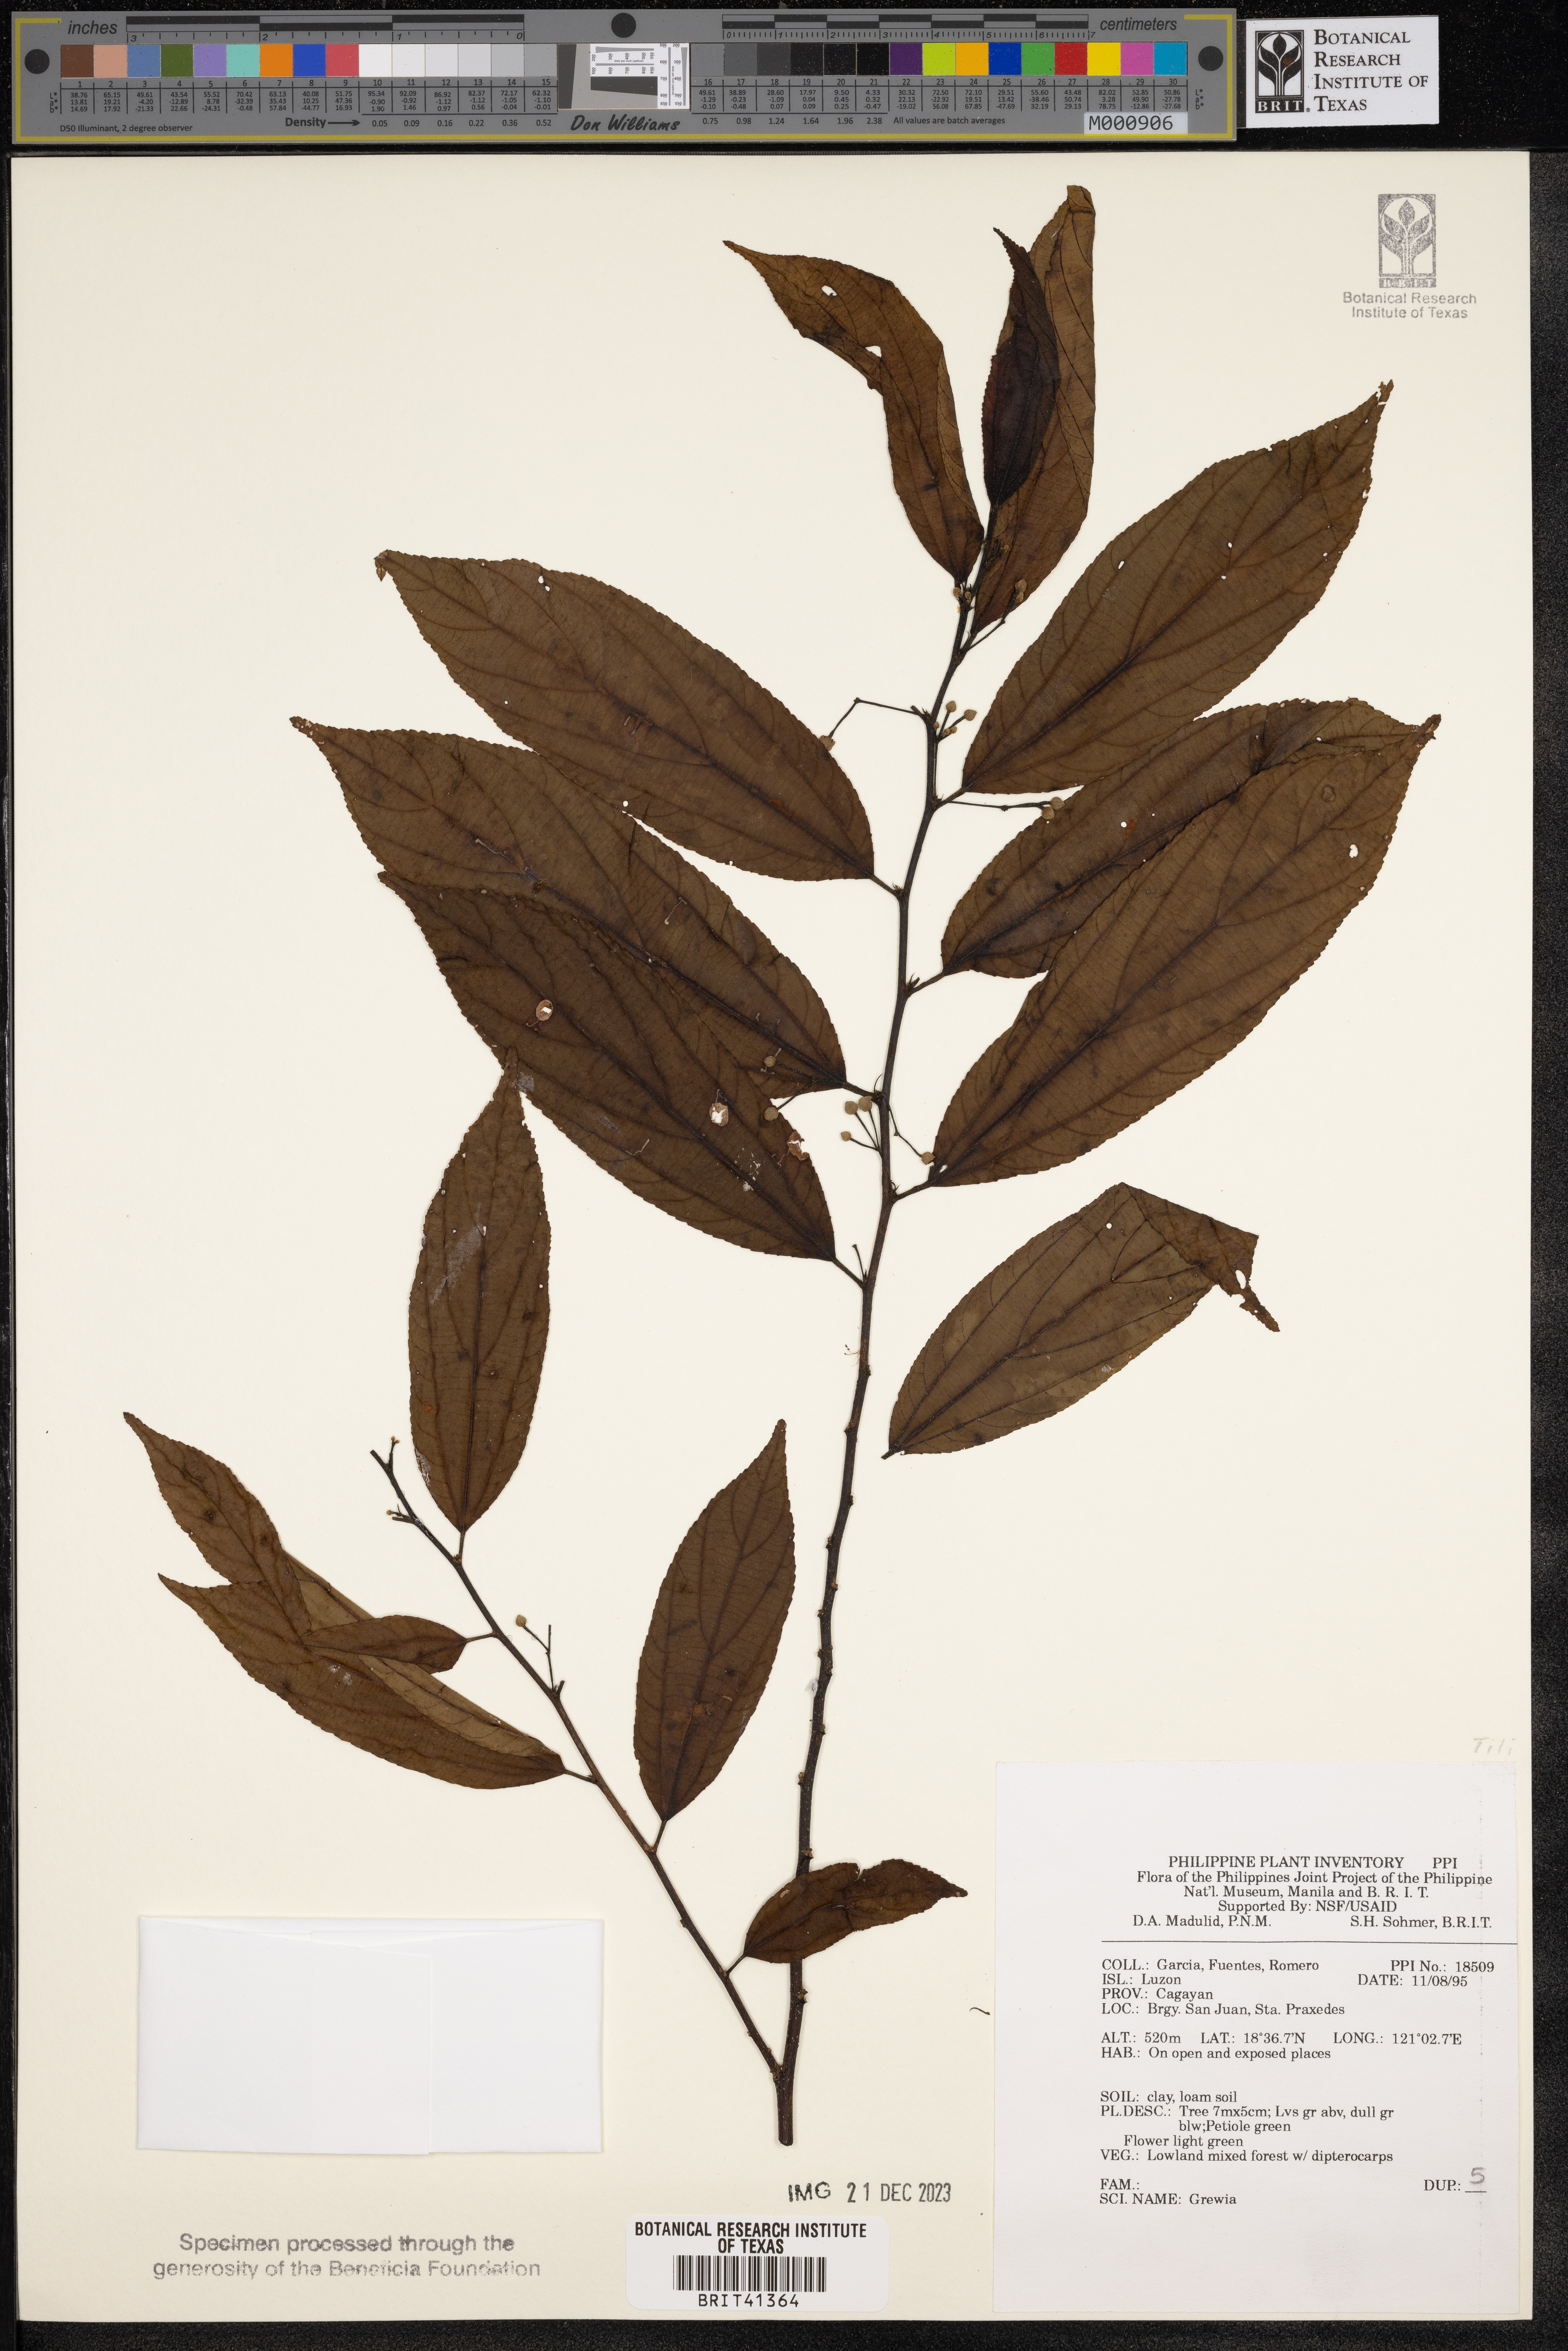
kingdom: Plantae
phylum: Tracheophyta
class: Magnoliopsida
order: Malvales
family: Malvaceae
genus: Grewia
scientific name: Grewia
